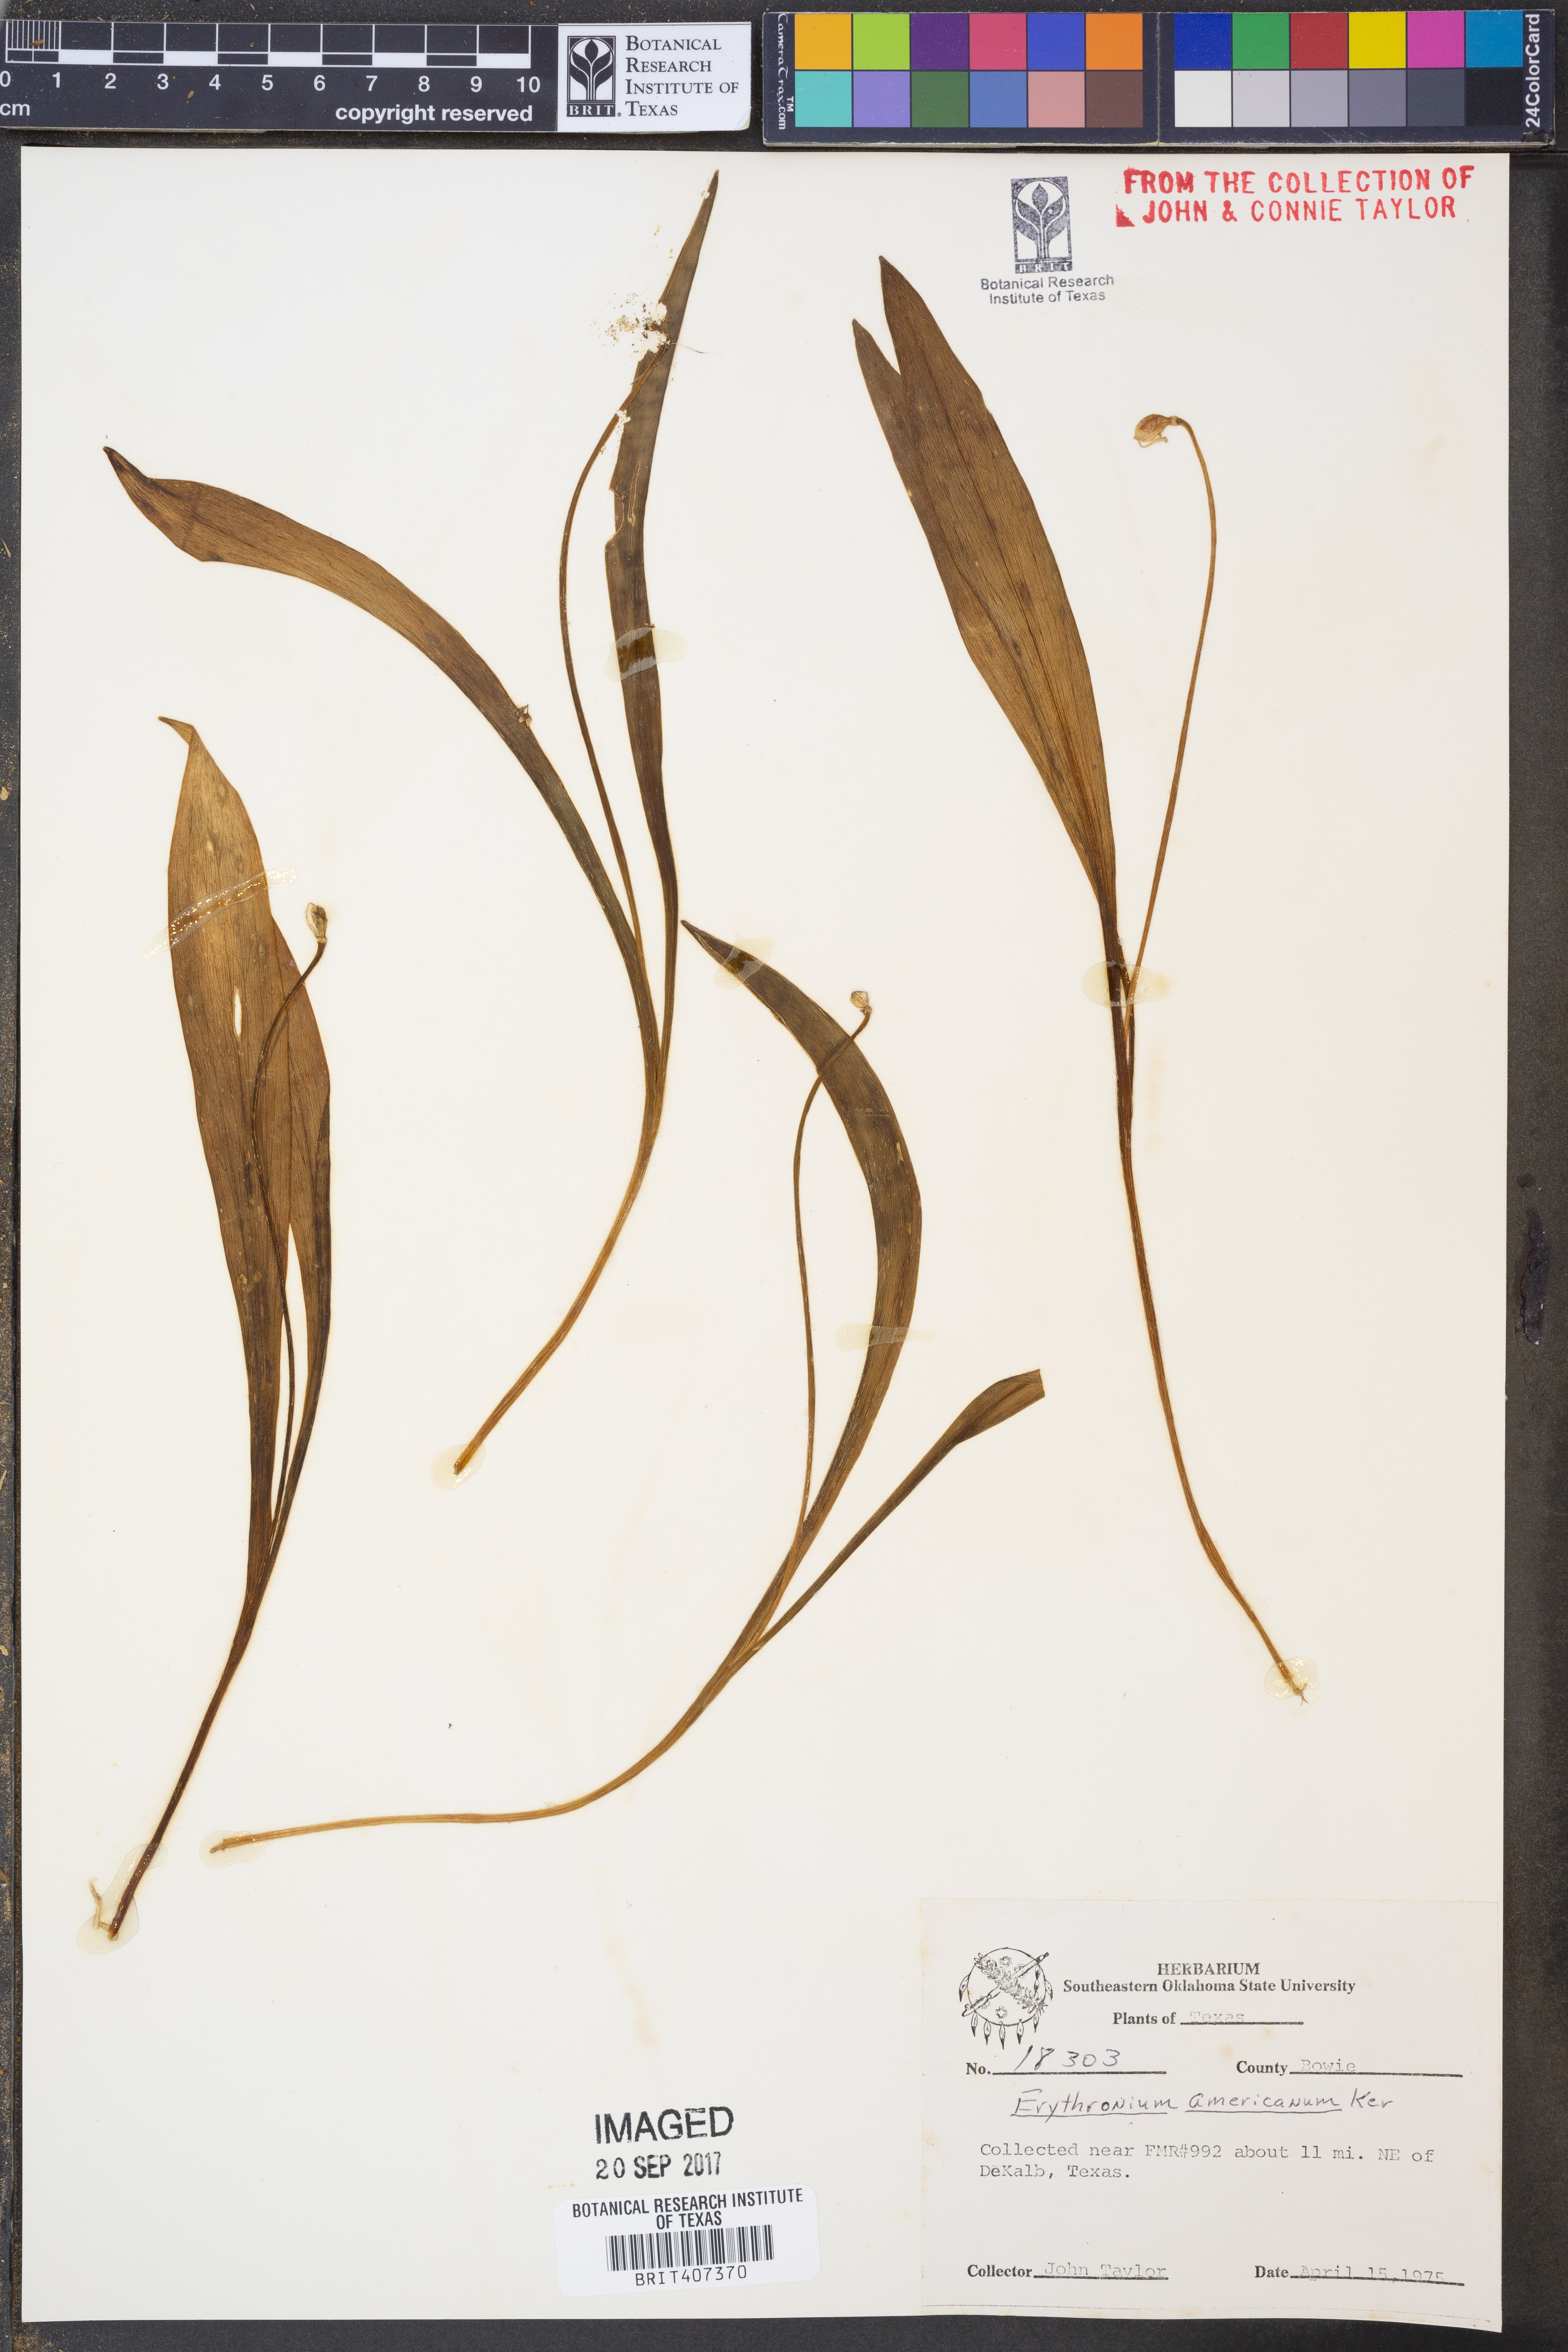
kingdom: Plantae
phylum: Tracheophyta
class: Liliopsida
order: Liliales
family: Liliaceae
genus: Erythronium
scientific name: Erythronium americanum
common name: Yellow adder's-tongue
